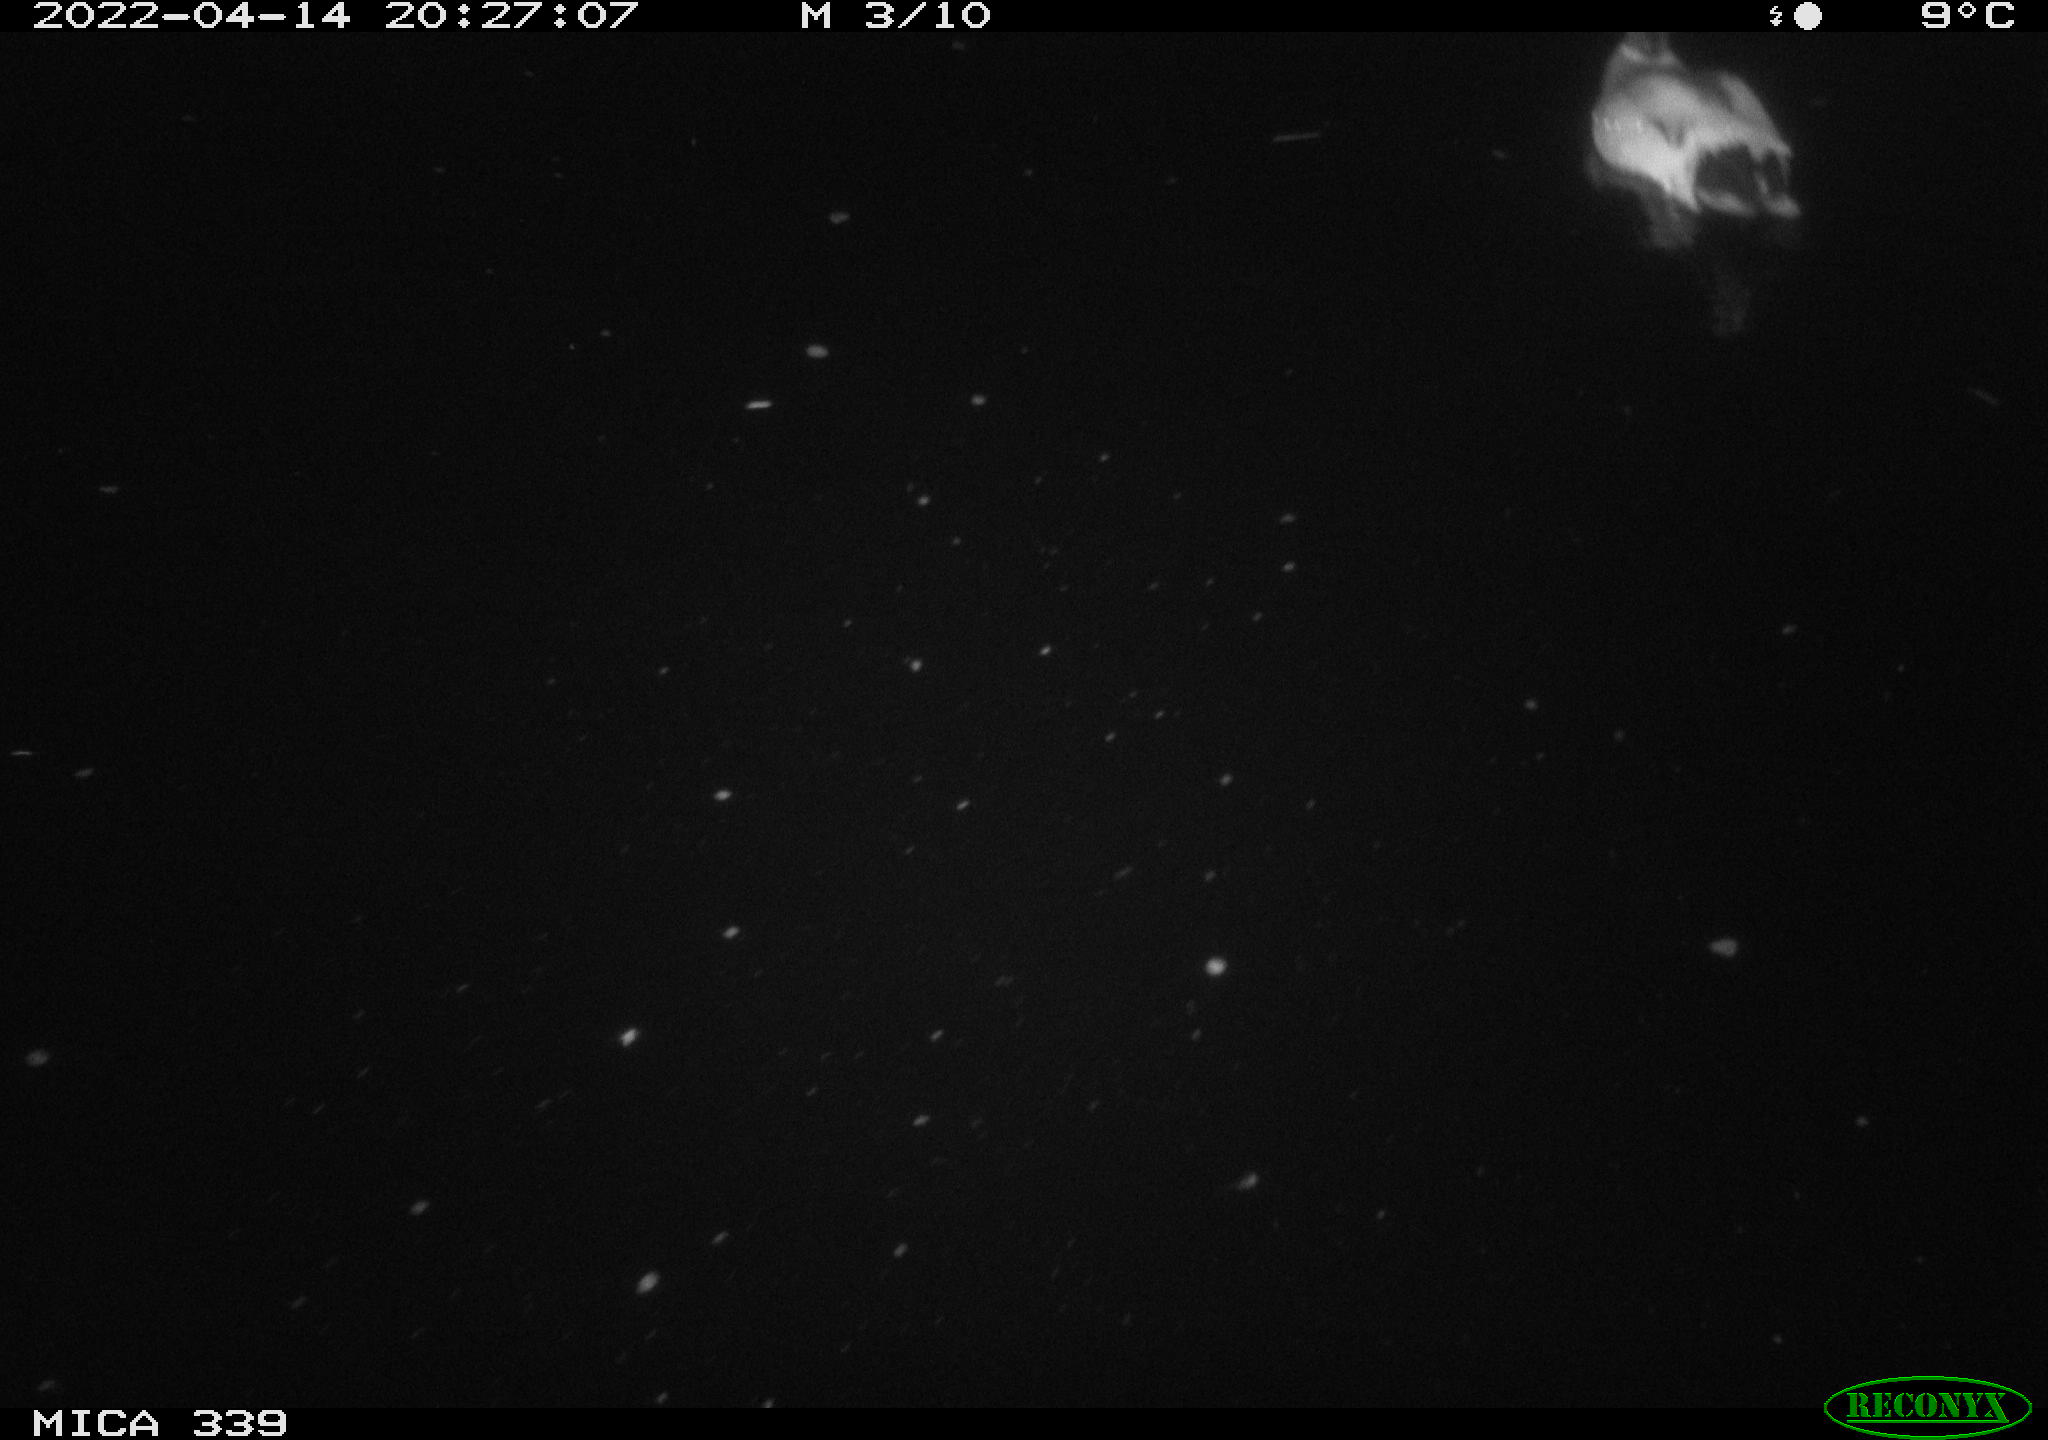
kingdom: Animalia
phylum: Chordata
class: Aves
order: Anseriformes
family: Anatidae
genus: Anas
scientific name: Anas platyrhynchos
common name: Mallard
